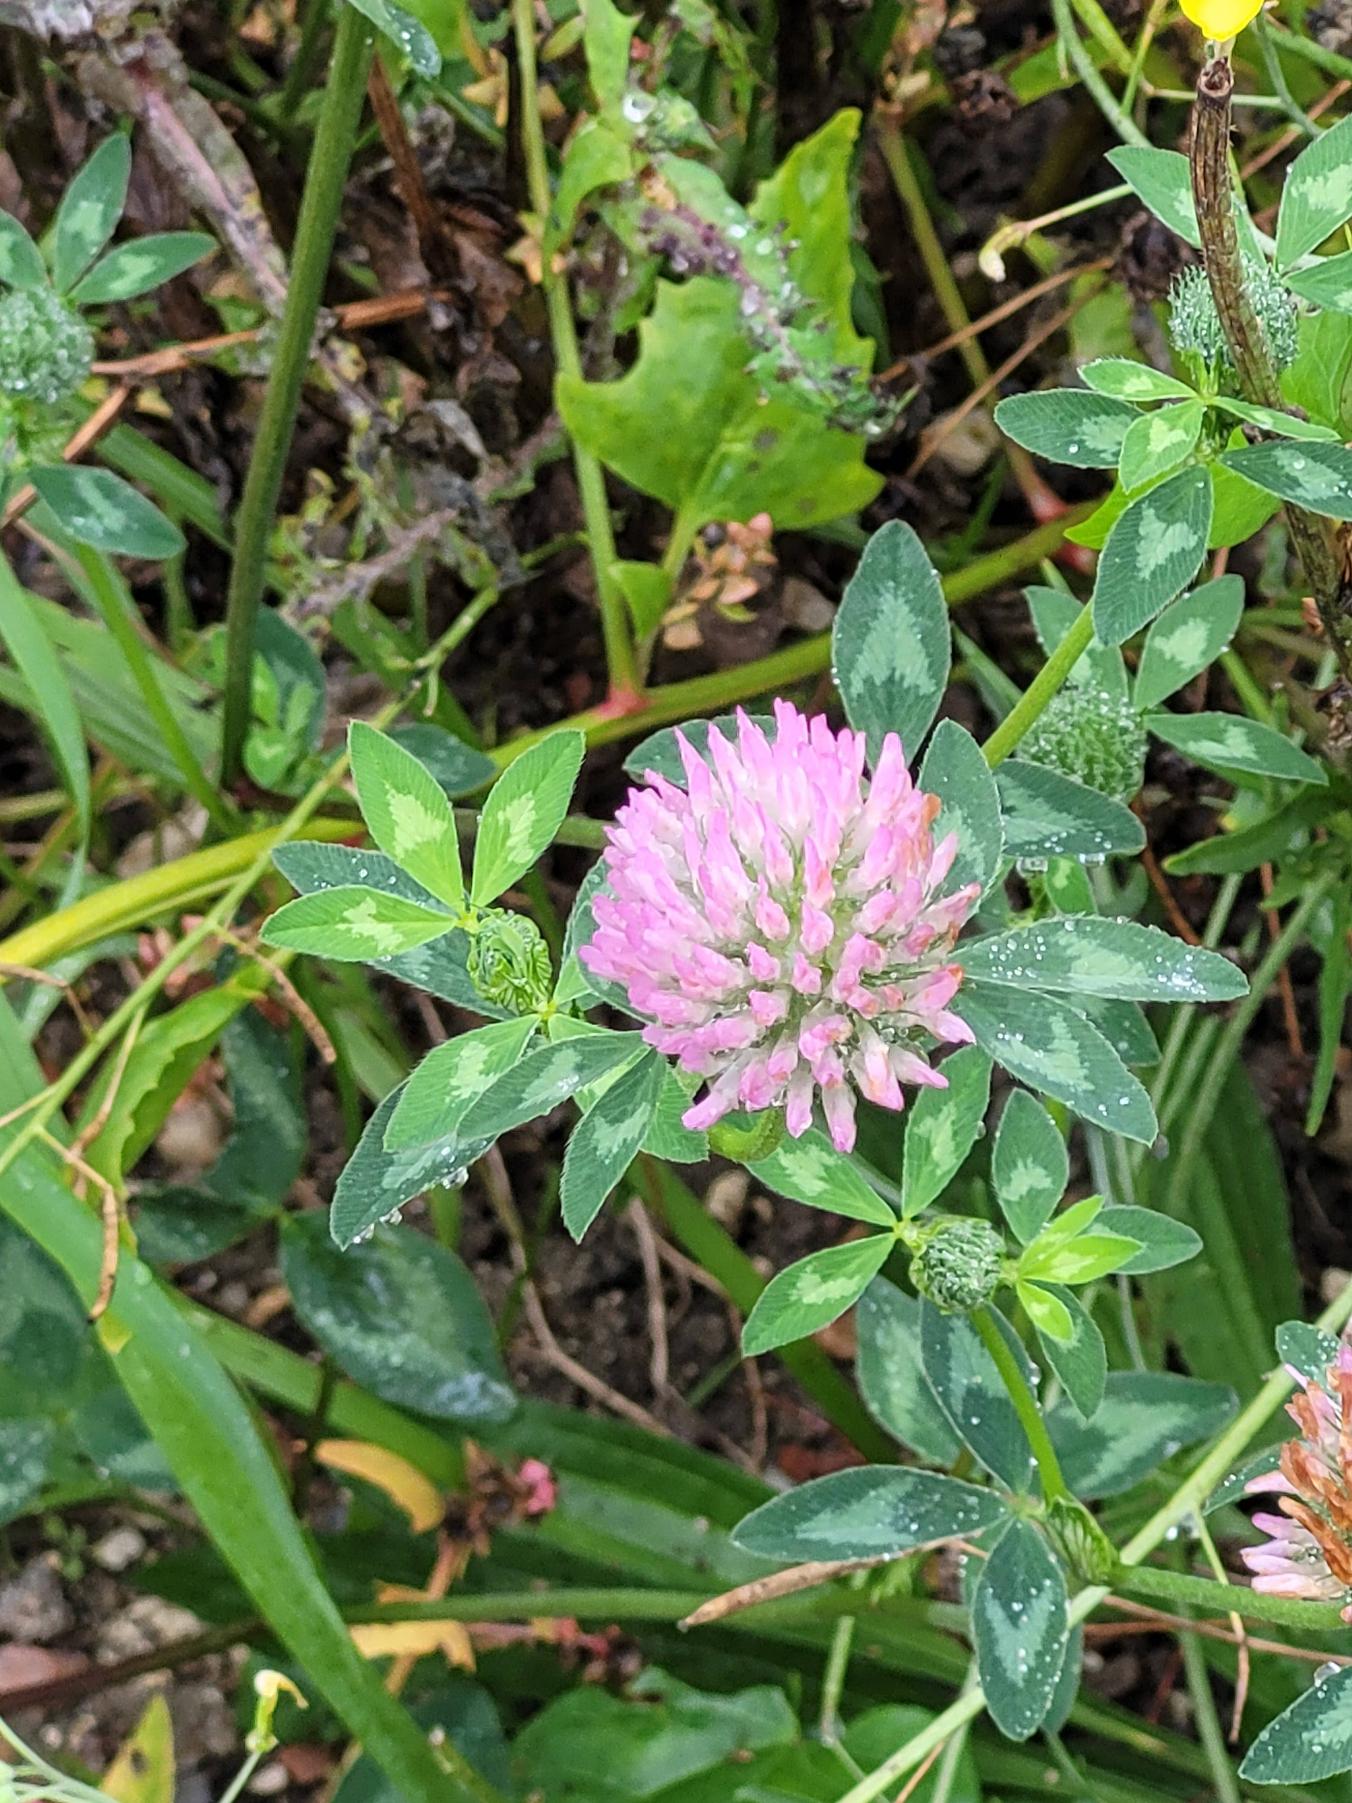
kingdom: Plantae
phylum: Tracheophyta
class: Magnoliopsida
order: Fabales
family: Fabaceae
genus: Trifolium
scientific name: Trifolium pratense
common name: Rød-kløver
